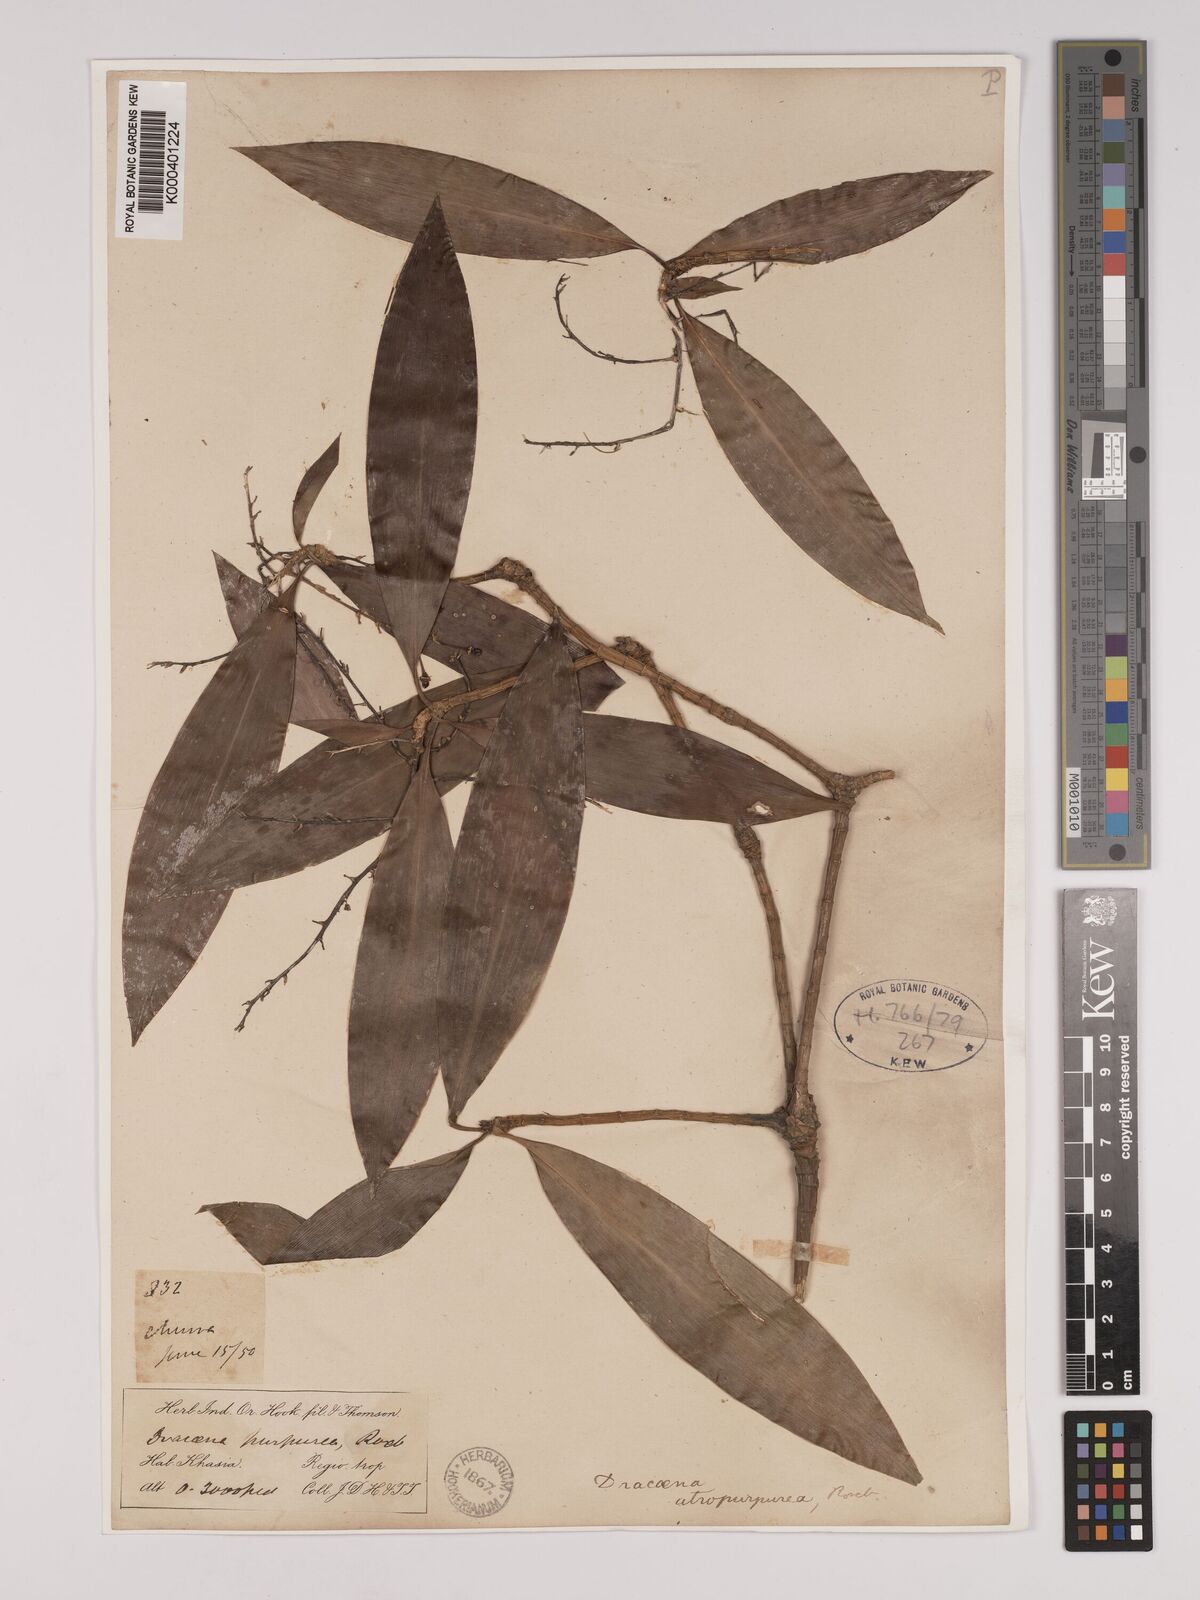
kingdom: Plantae
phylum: Tracheophyta
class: Liliopsida
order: Asparagales
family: Asparagaceae
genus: Dracaena
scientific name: Dracaena elliptica
